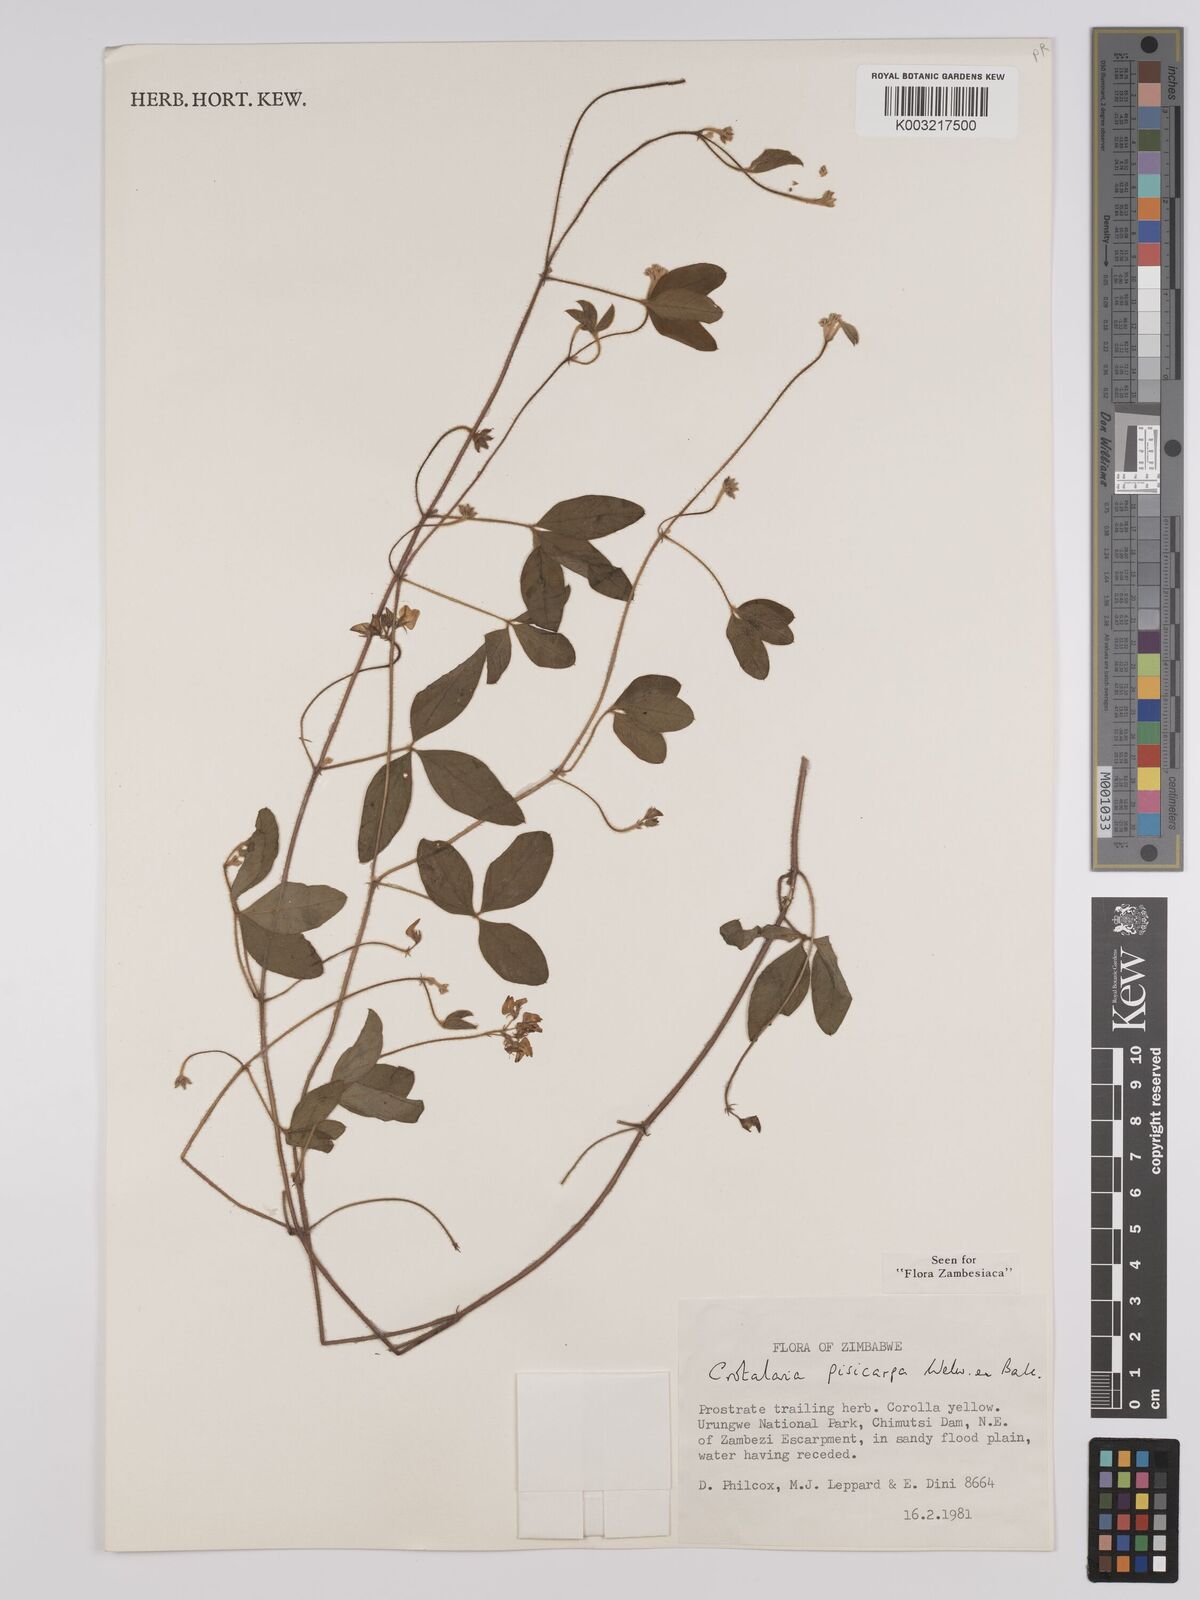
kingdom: Plantae
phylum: Tracheophyta
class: Magnoliopsida
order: Fabales
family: Fabaceae
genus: Crotalaria
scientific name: Crotalaria pisicarpa
